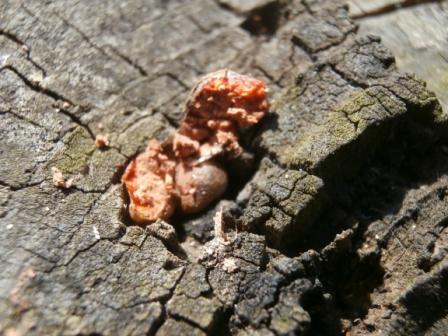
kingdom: Protozoa
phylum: Mycetozoa
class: Myxomycetes
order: Cribrariales
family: Tubiferaceae
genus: Lycogala
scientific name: Lycogala epidendrum
